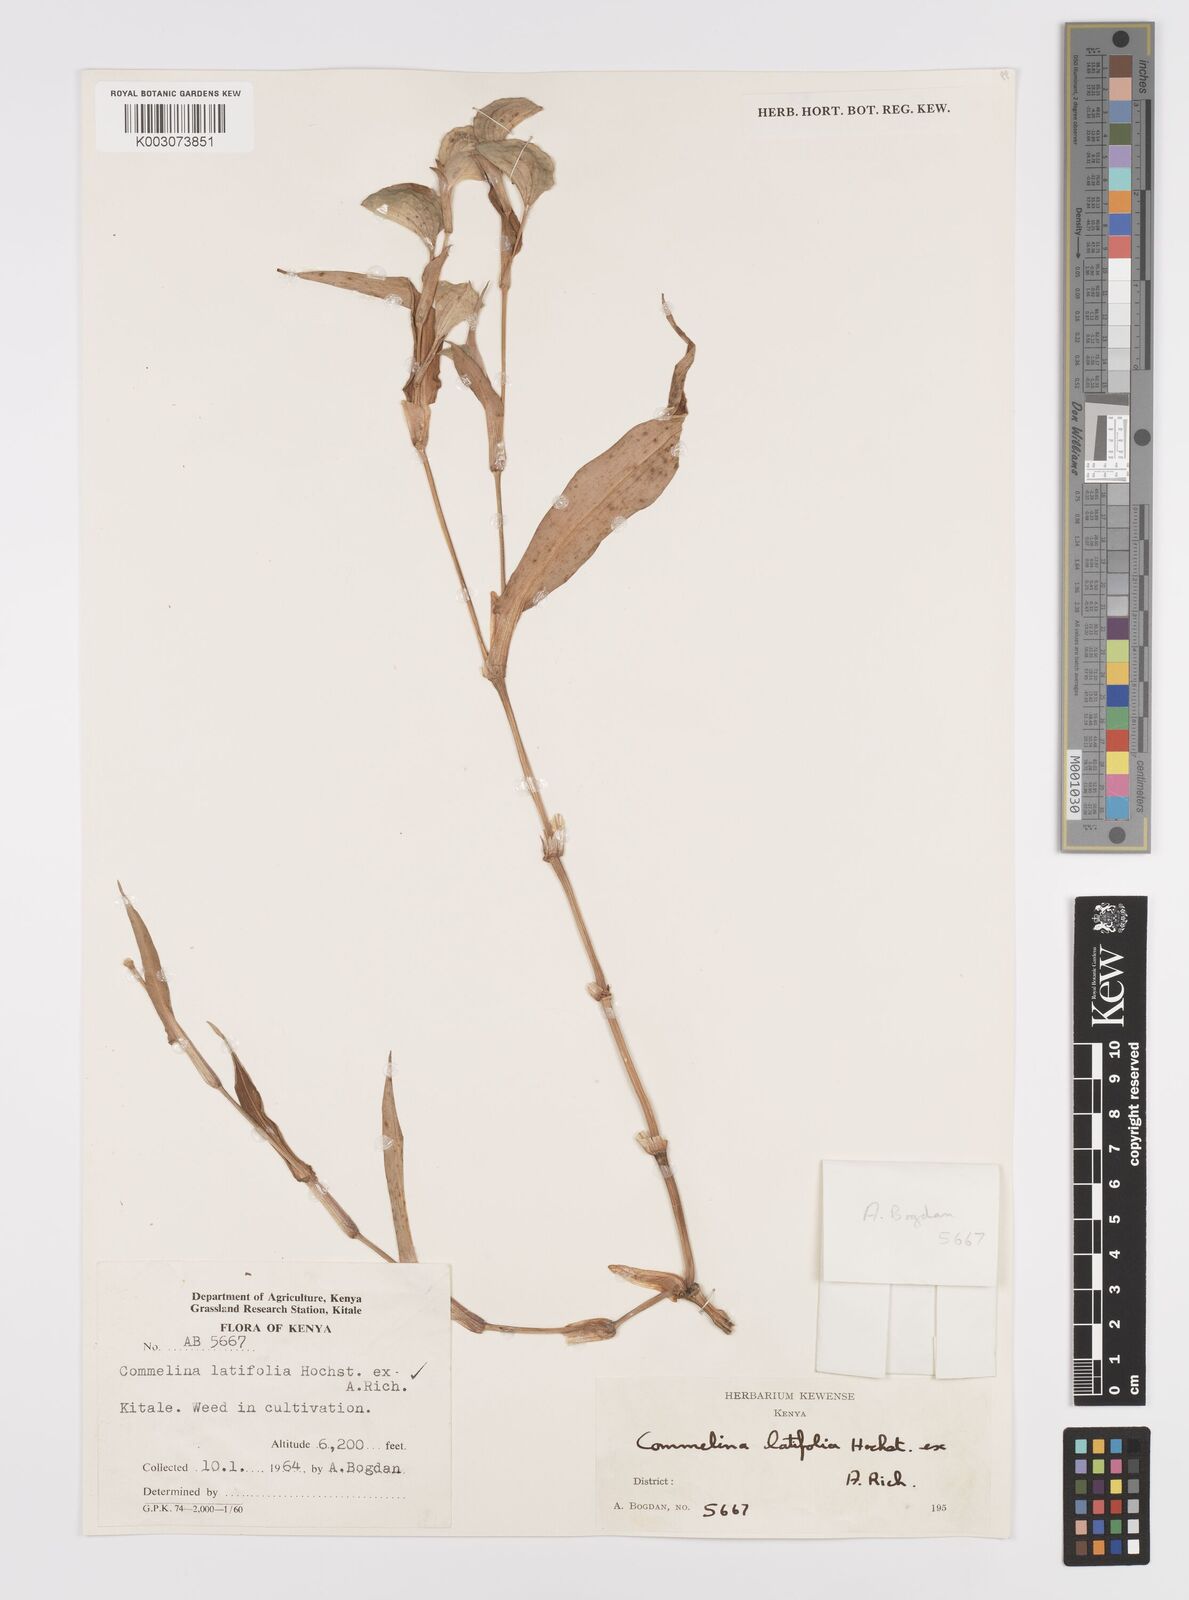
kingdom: Plantae
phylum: Tracheophyta
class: Liliopsida
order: Commelinales
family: Commelinaceae
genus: Commelina
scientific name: Commelina latifolia
